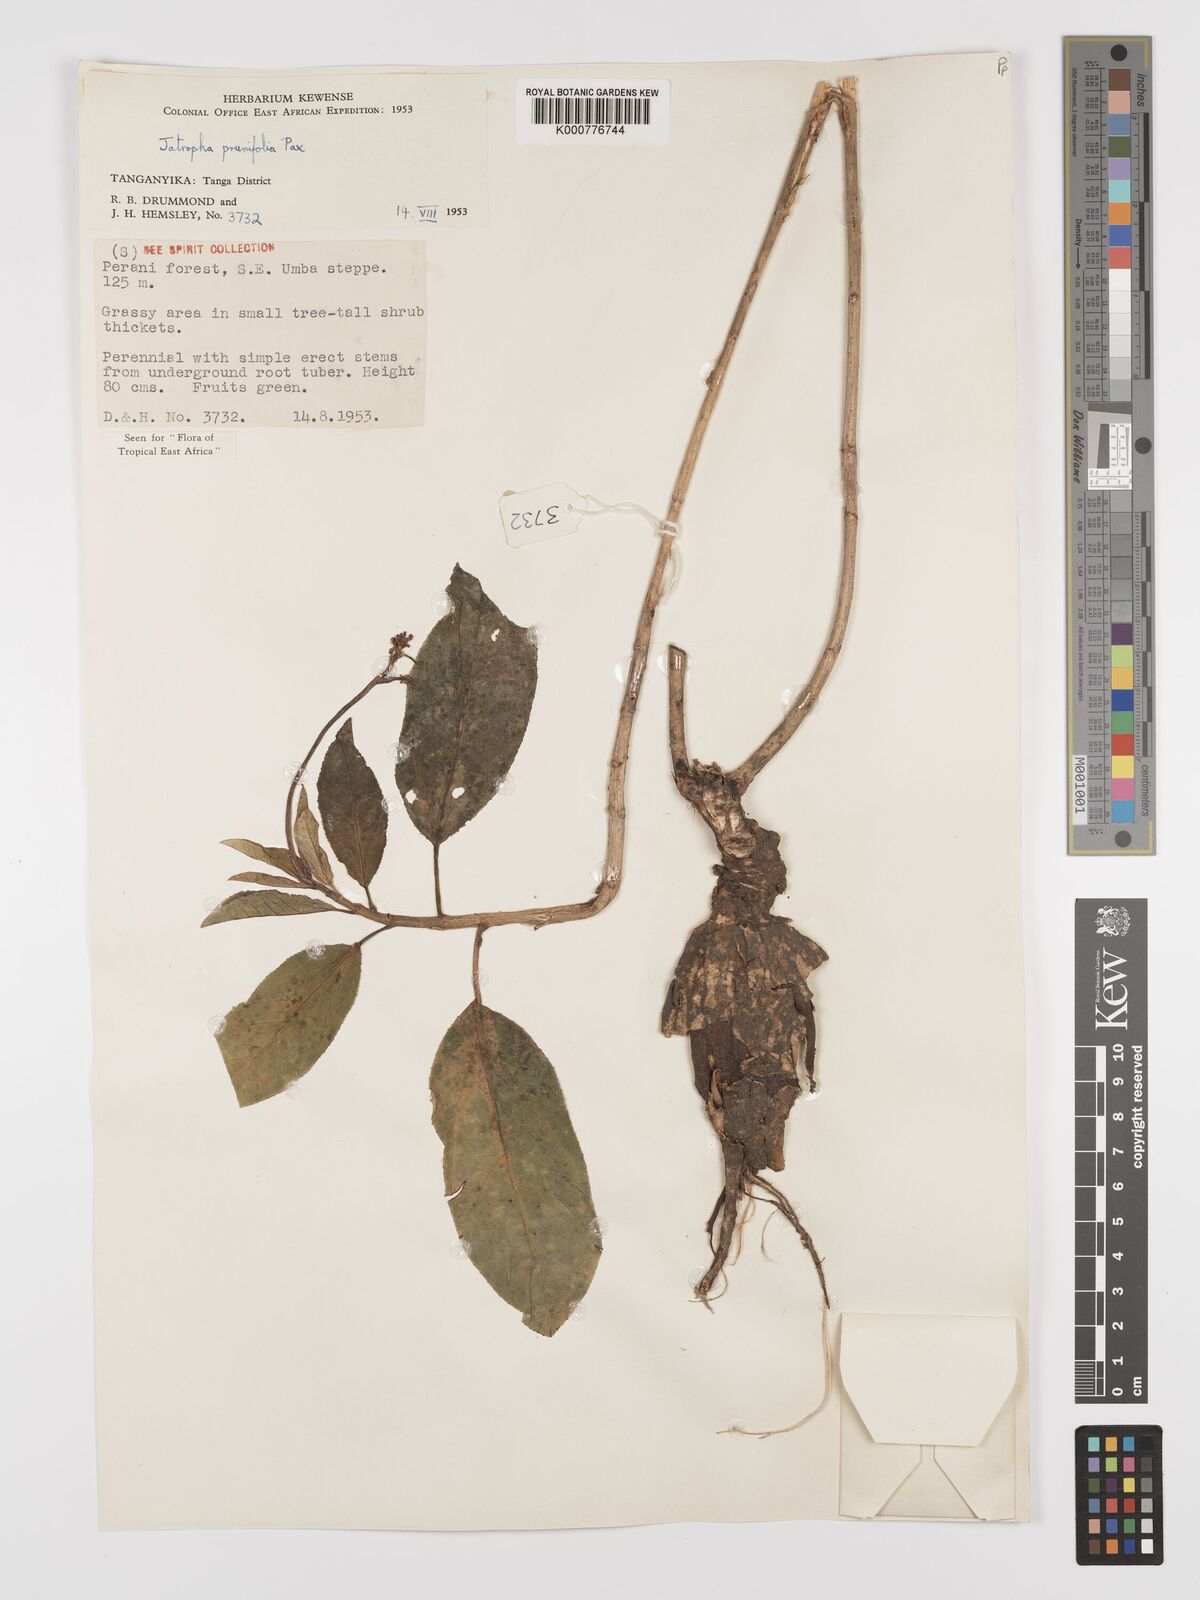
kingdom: Plantae
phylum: Tracheophyta
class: Magnoliopsida
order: Malpighiales
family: Euphorbiaceae
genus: Jatropha
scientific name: Jatropha
